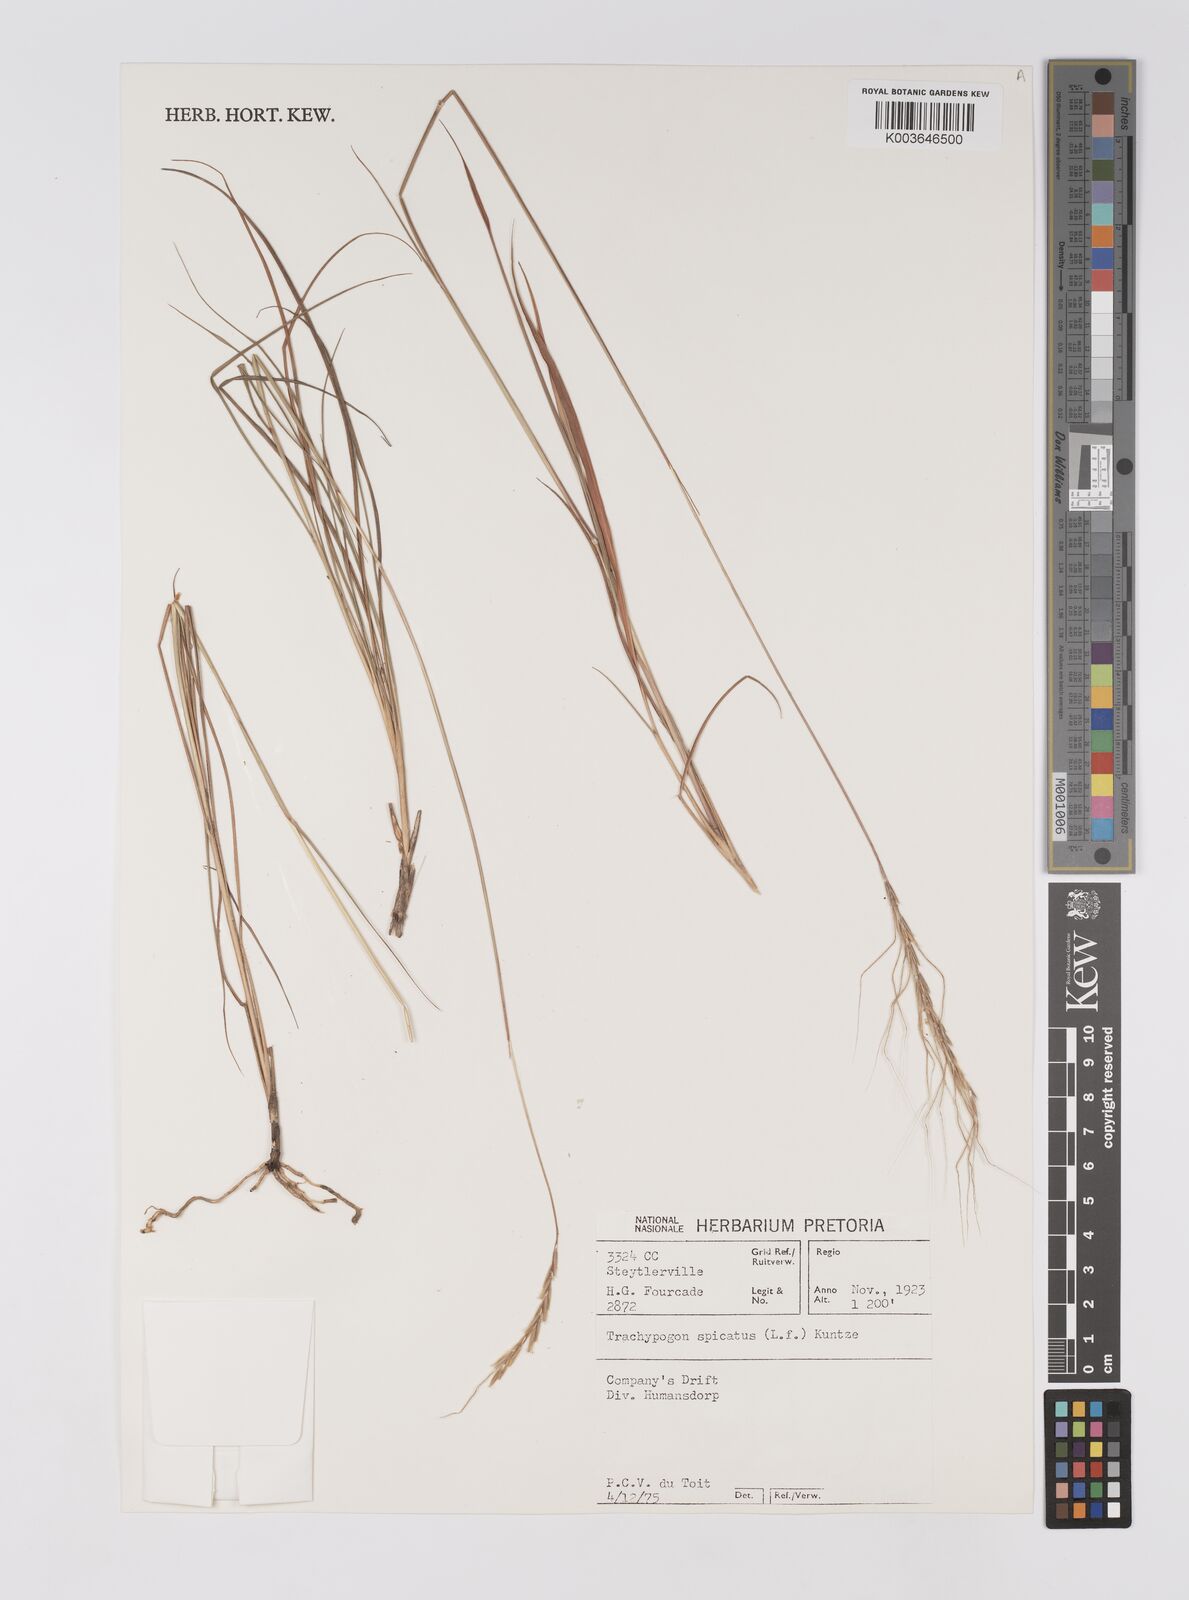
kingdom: Plantae
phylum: Tracheophyta
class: Liliopsida
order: Poales
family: Poaceae
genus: Trachypogon
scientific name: Trachypogon spicatus
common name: Crinkle-awn
